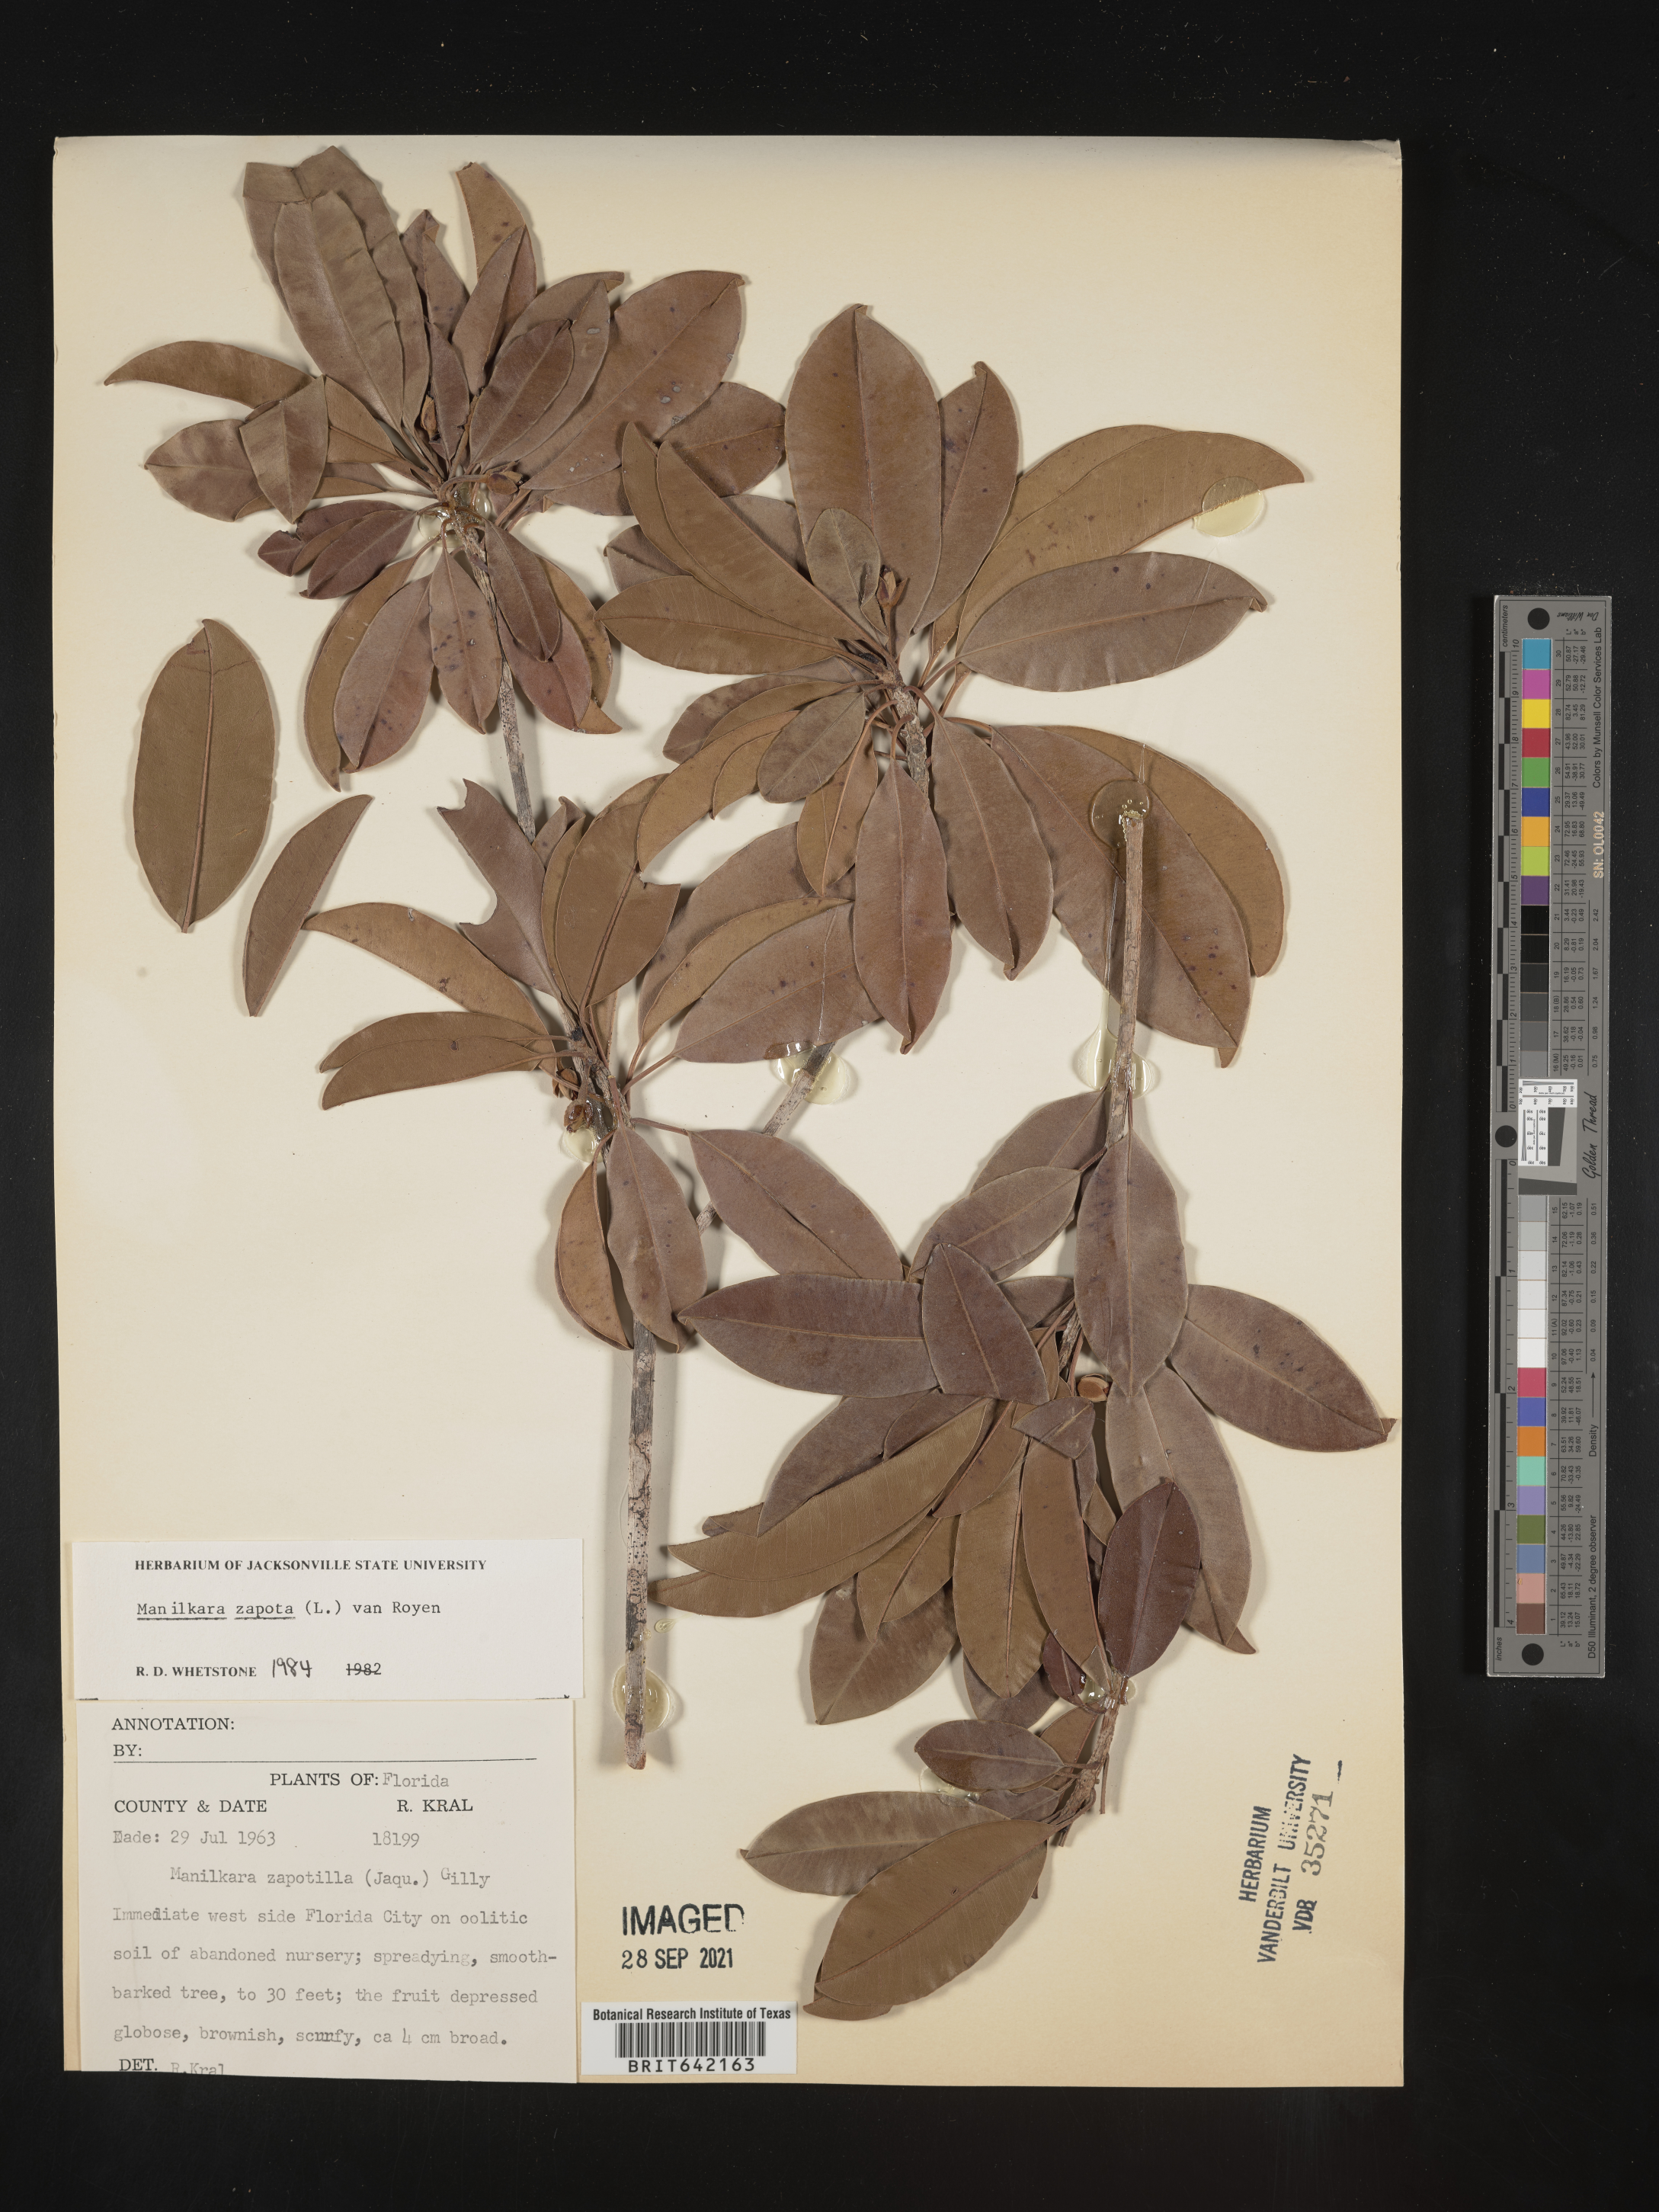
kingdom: Plantae
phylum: Tracheophyta
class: Magnoliopsida
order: Ericales
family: Sapotaceae
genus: Manilkara
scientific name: Manilkara zapota
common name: Sapodilla
